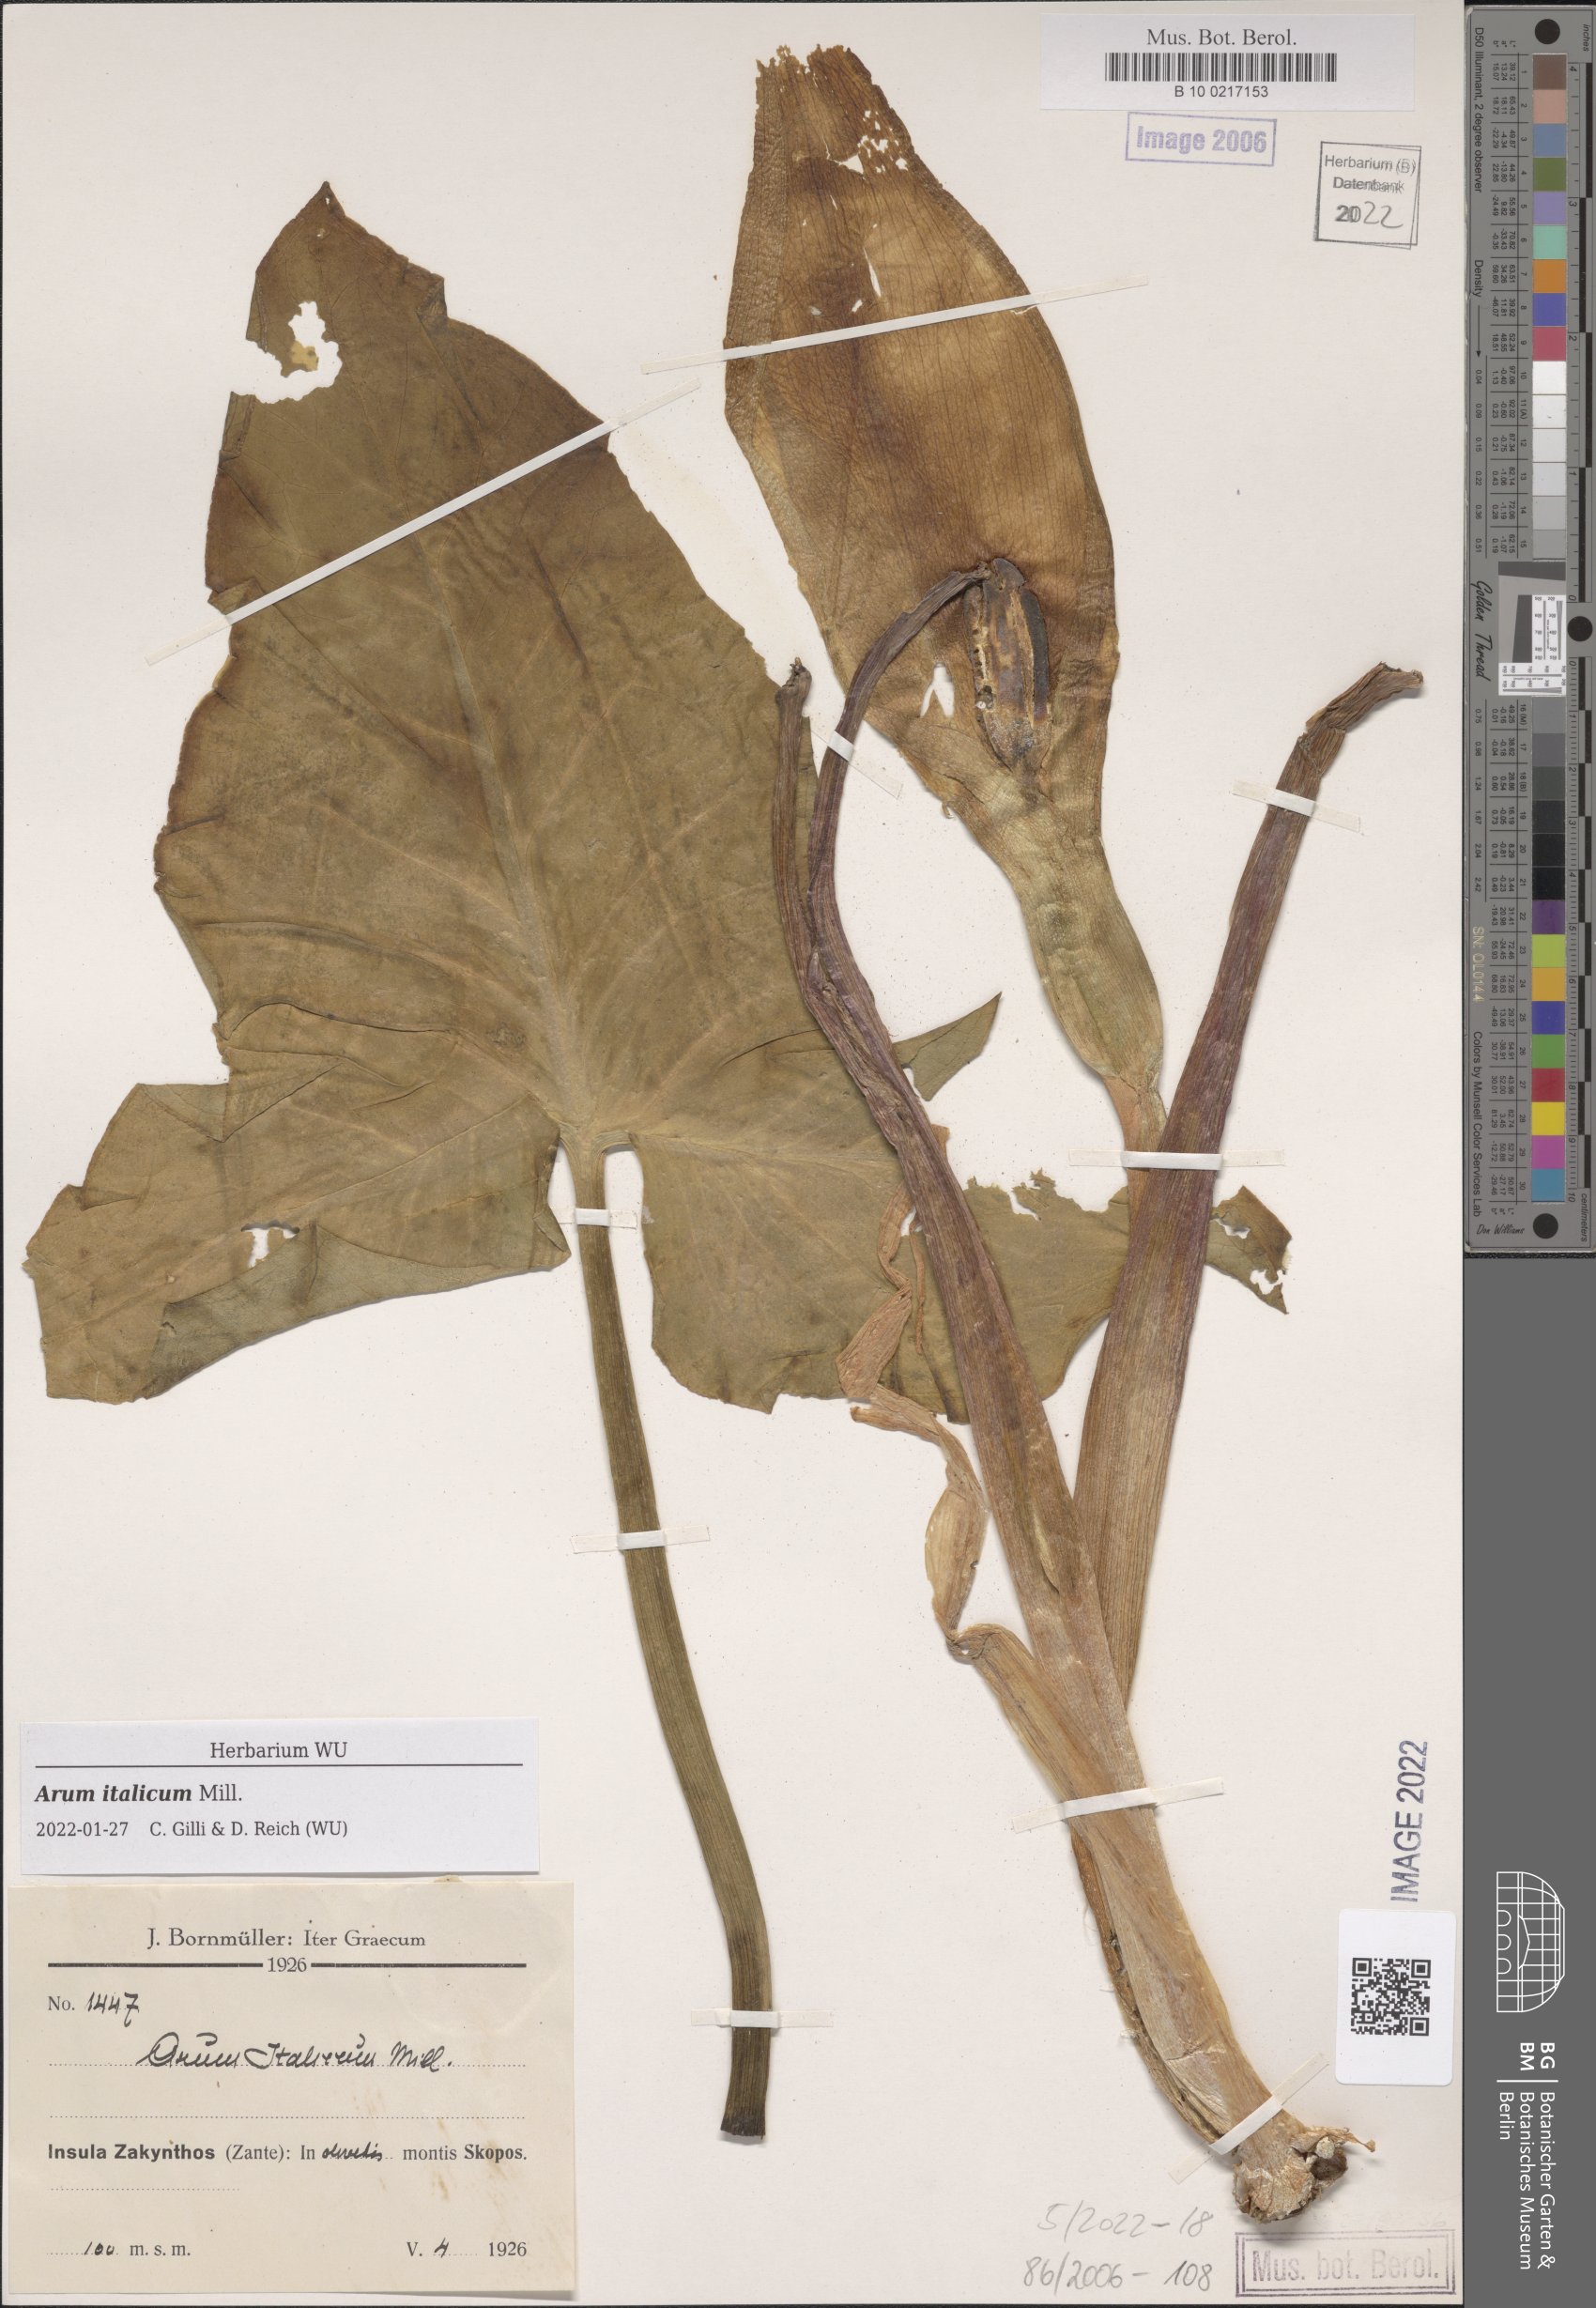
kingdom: Plantae
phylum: Tracheophyta
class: Liliopsida
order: Alismatales
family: Araceae
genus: Arum
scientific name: Arum italicum
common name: Italian lords-and-ladies
